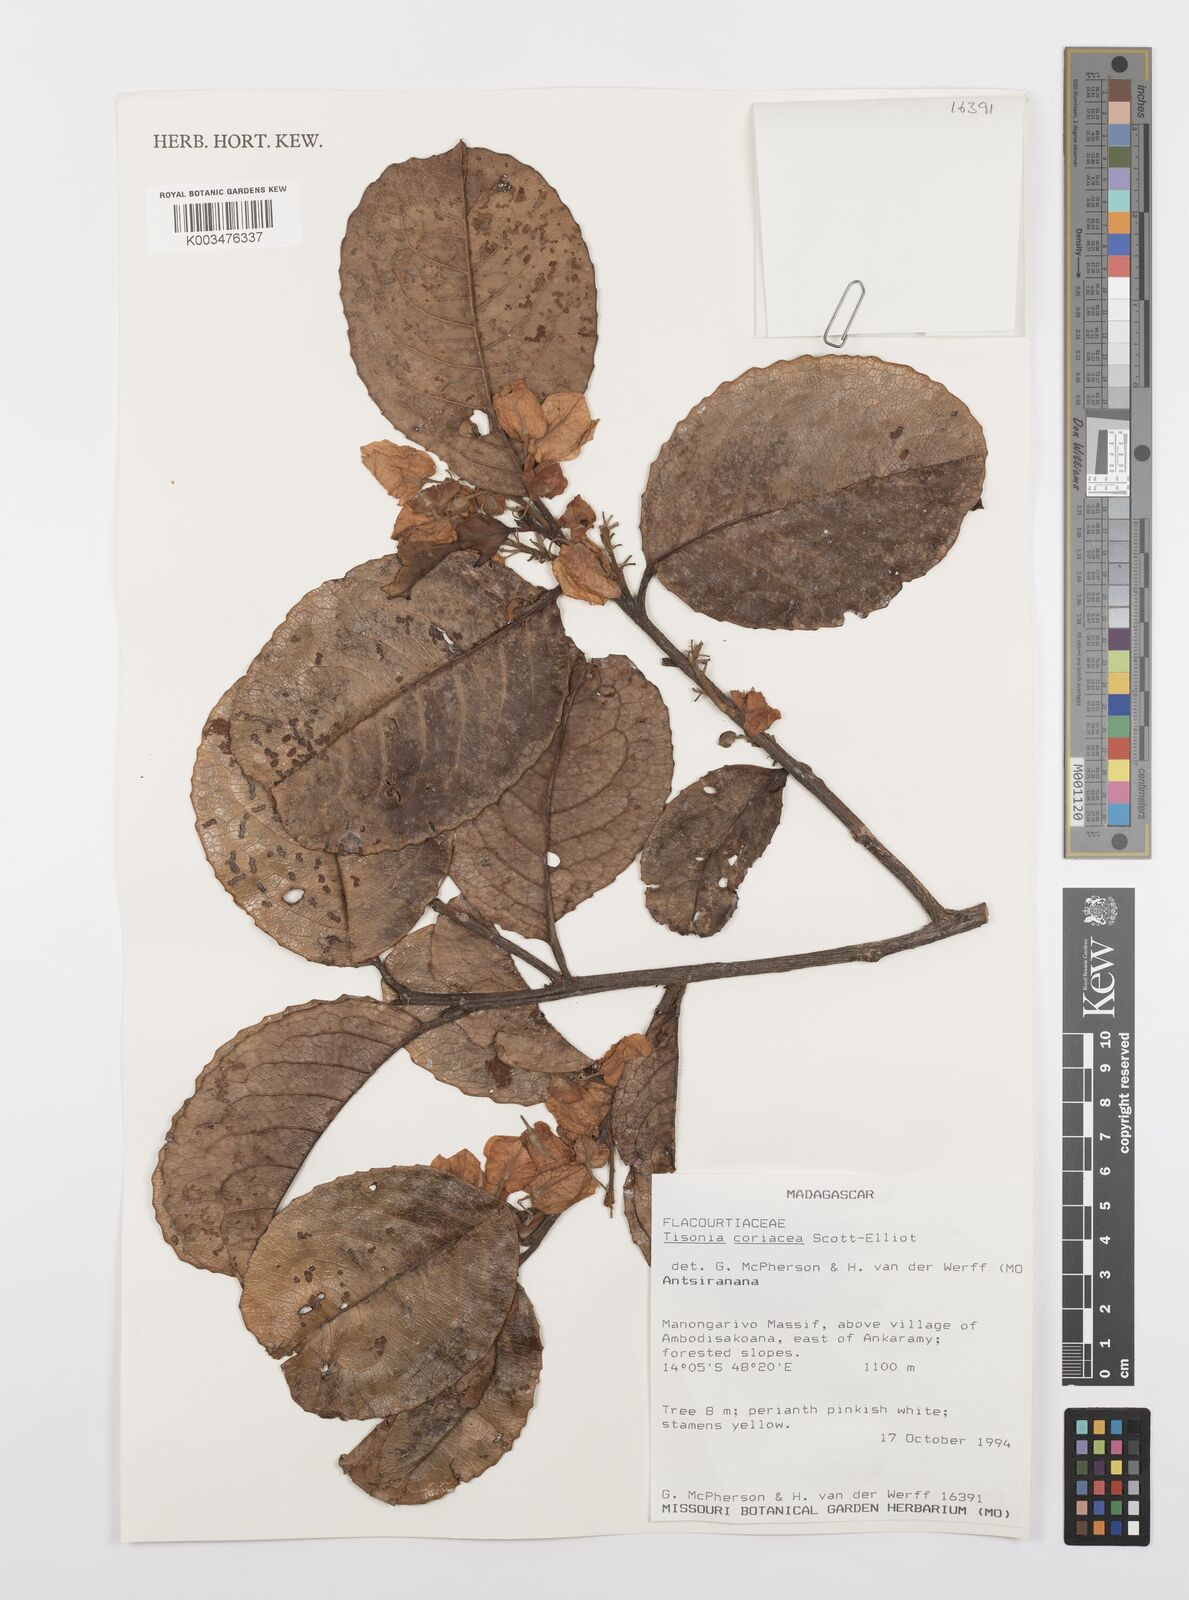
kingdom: Plantae
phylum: Tracheophyta
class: Magnoliopsida
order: Malpighiales
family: Salicaceae
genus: Tisonia
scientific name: Tisonia coriacea
